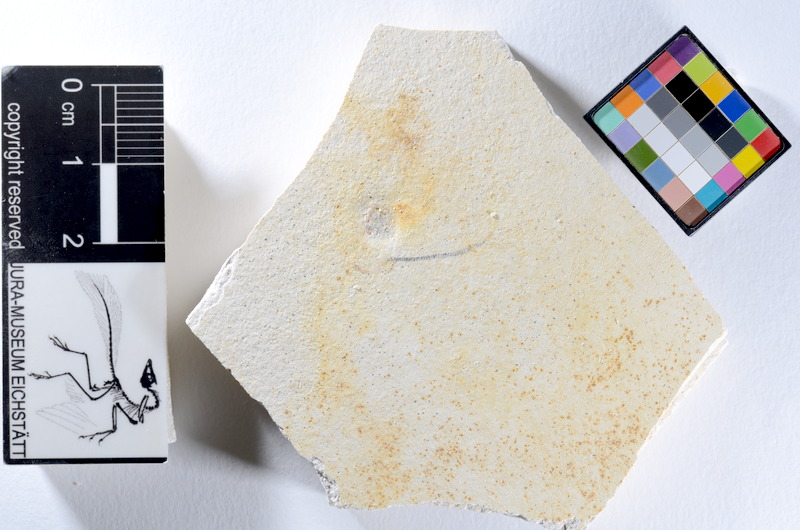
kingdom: Animalia
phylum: Chordata
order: Salmoniformes
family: Orthogonikleithridae
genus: Orthogonikleithrus
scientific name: Orthogonikleithrus hoelli
